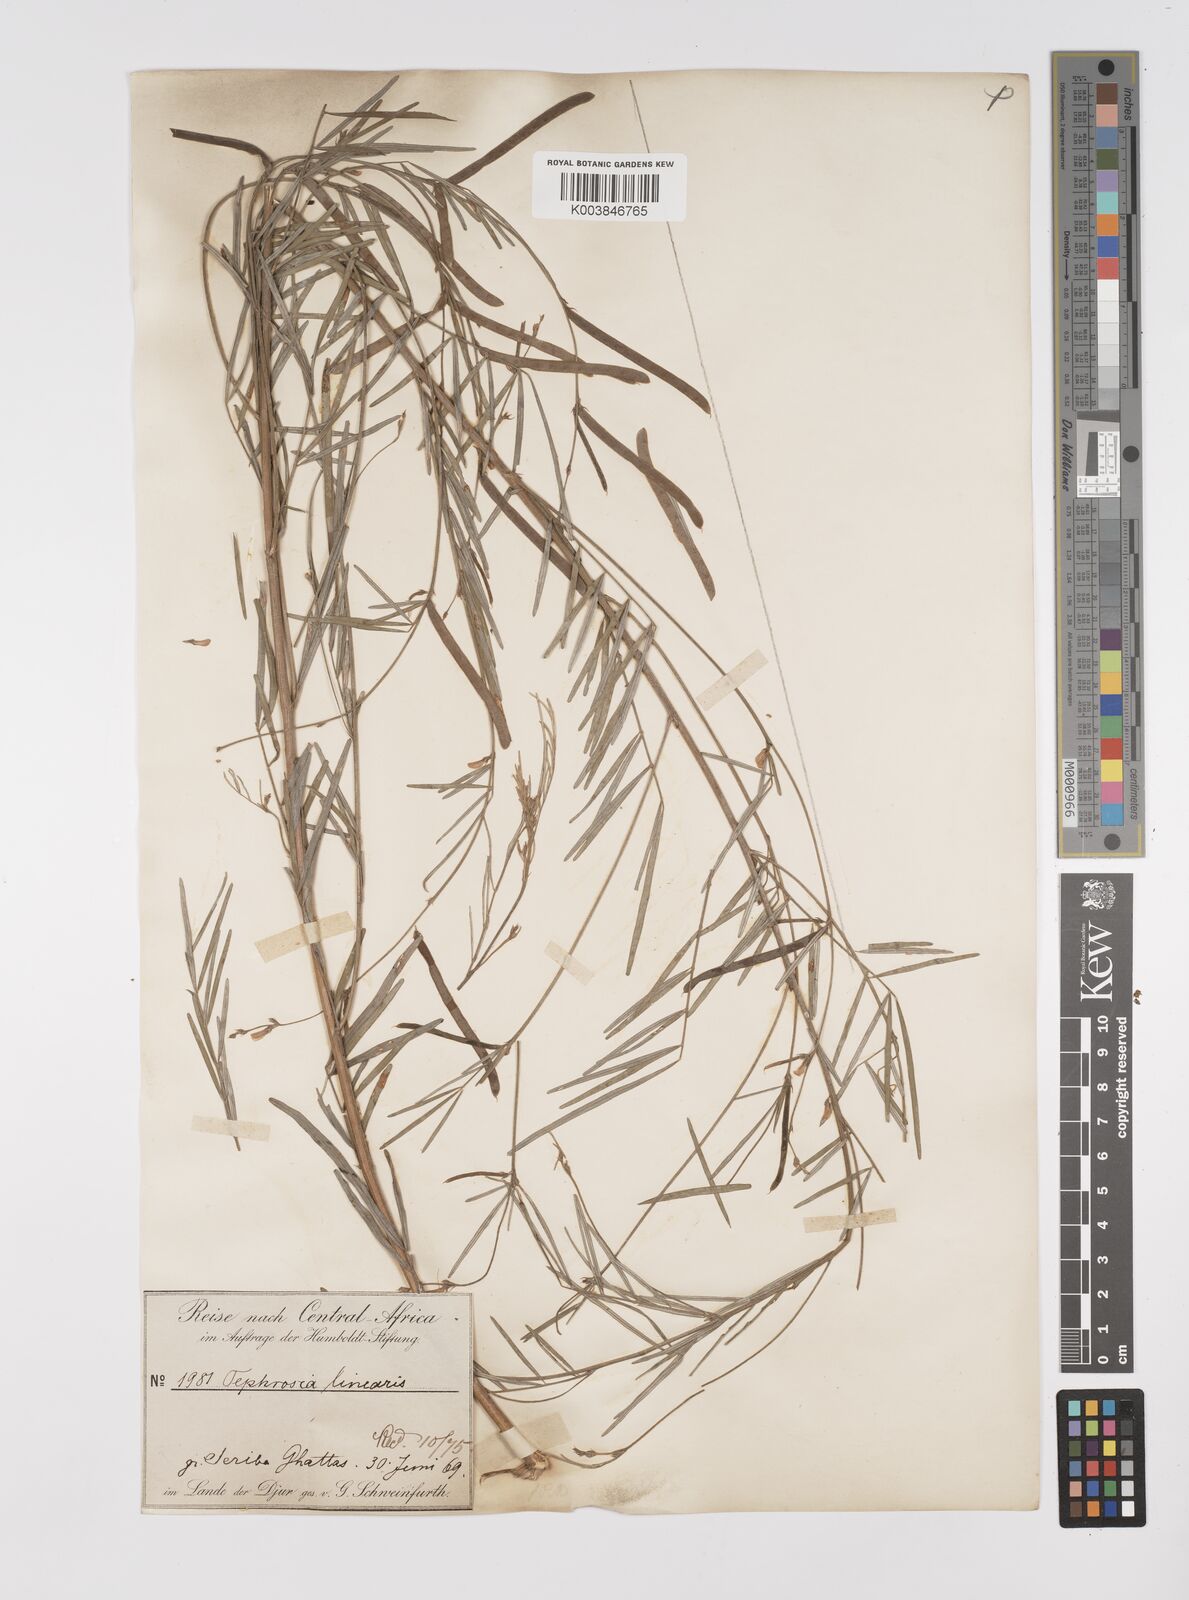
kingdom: Plantae
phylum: Tracheophyta
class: Magnoliopsida
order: Fabales
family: Fabaceae
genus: Tephrosia
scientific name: Tephrosia linearis
